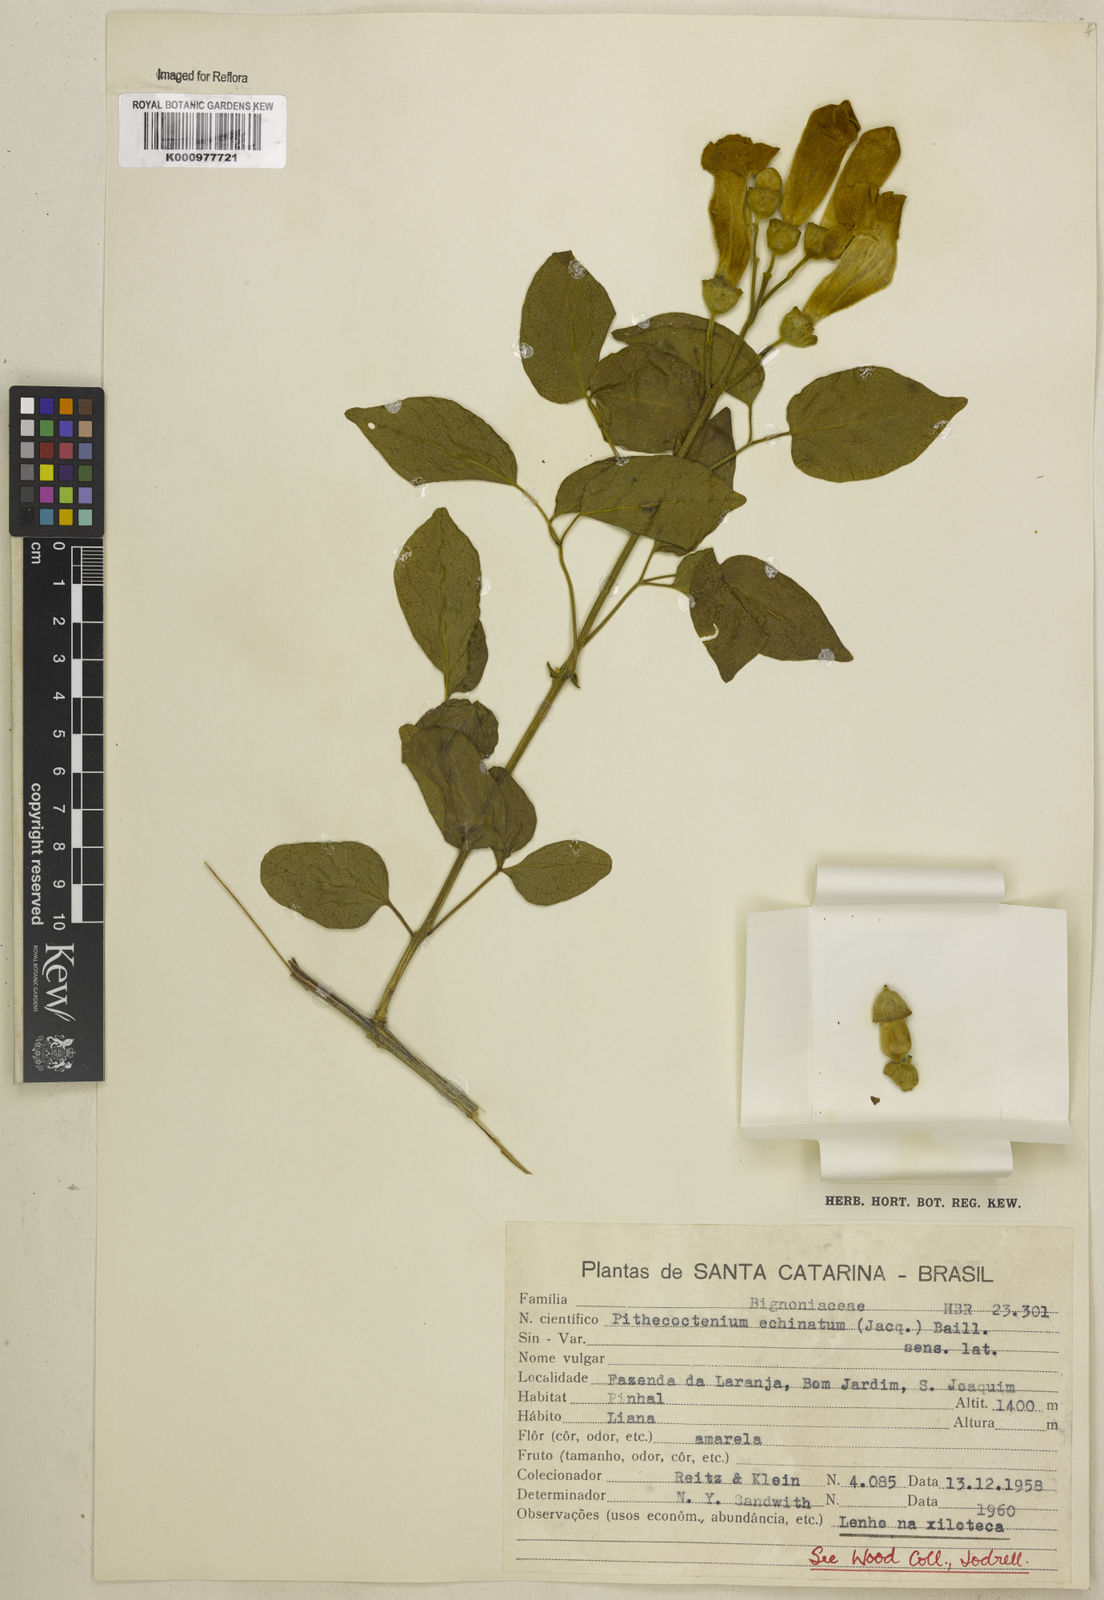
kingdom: Plantae
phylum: Tracheophyta
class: Magnoliopsida
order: Lamiales
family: Bignoniaceae
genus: Amphilophium
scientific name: Amphilophium crucigerum
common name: Monkey comb
